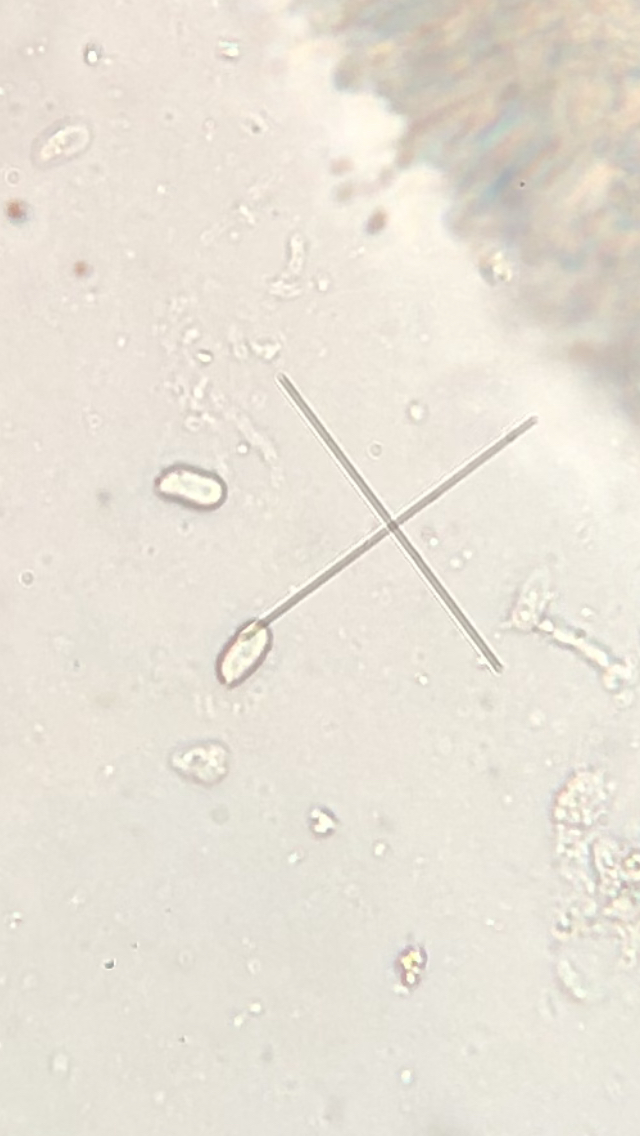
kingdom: Fungi
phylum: Basidiomycota
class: Agaricomycetes
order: Polyporales
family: Phanerochaetaceae
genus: Phlebiopsis
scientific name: Phlebiopsis gigantea
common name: kæmpebarksvamp
